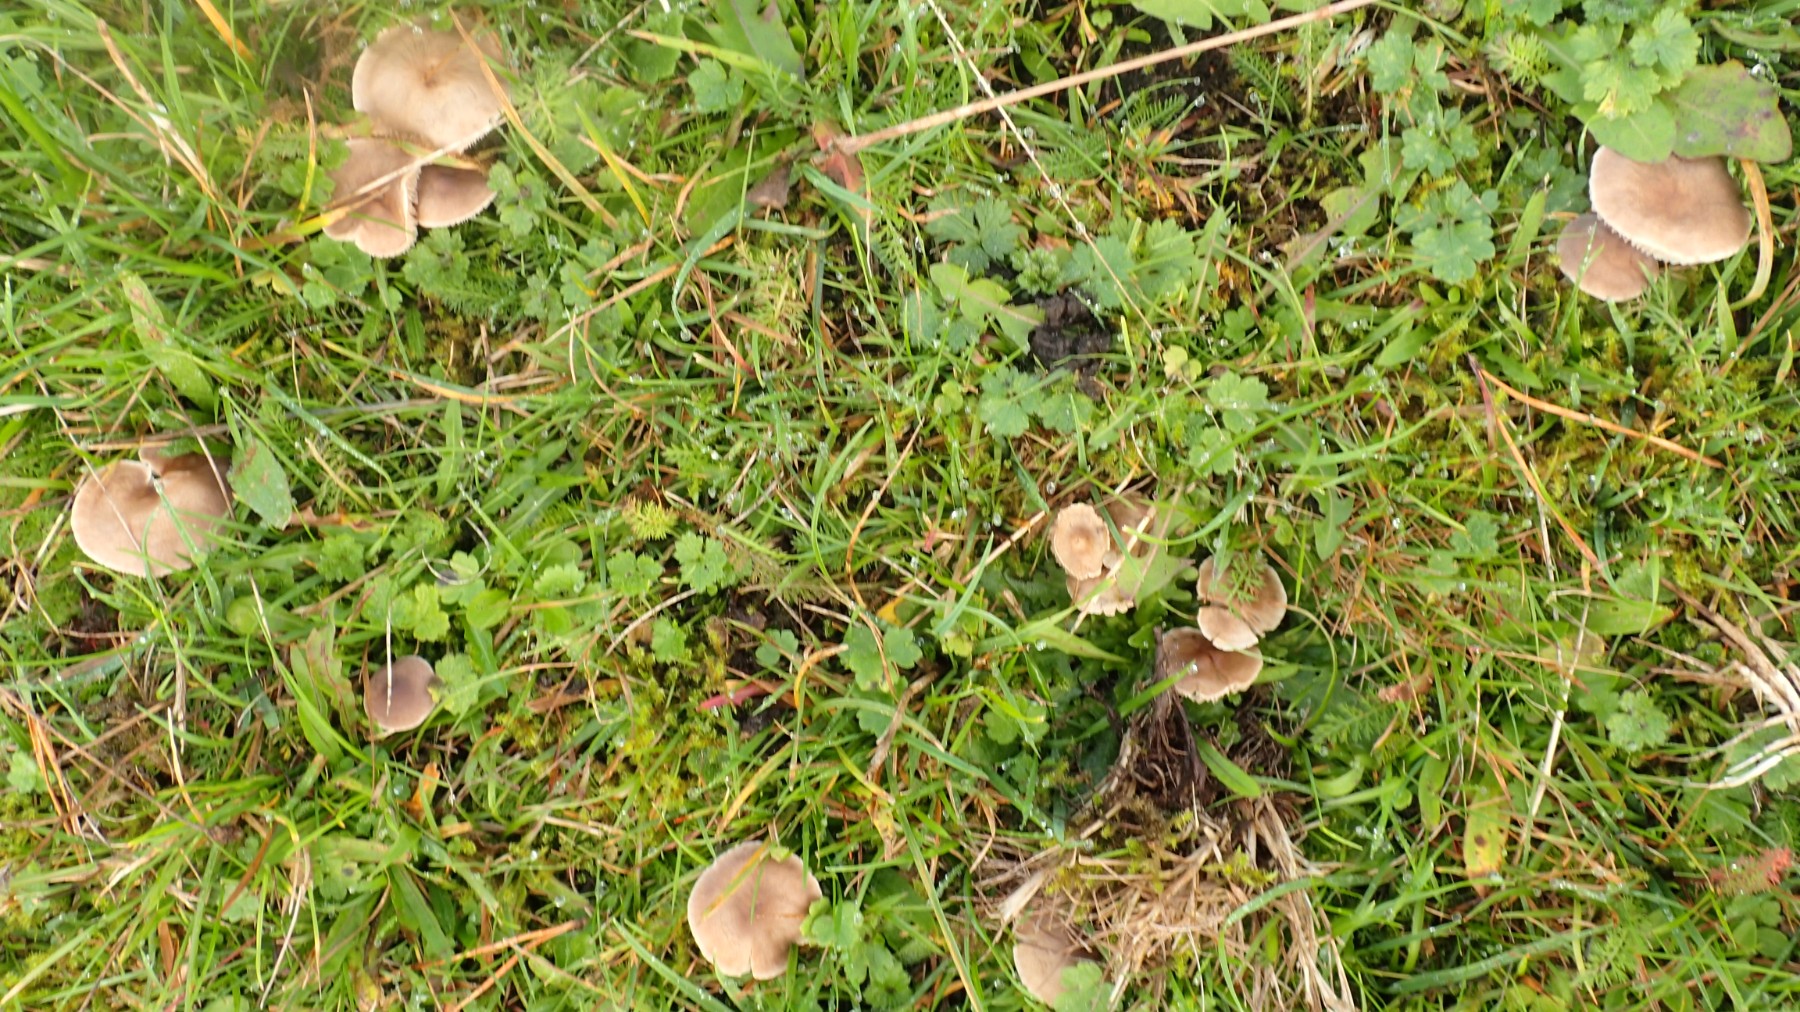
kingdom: Fungi
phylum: Basidiomycota
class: Agaricomycetes
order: Agaricales
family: Tricholomataceae
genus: Dermoloma
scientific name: Dermoloma cuneifolium
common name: eng-nonnehat
